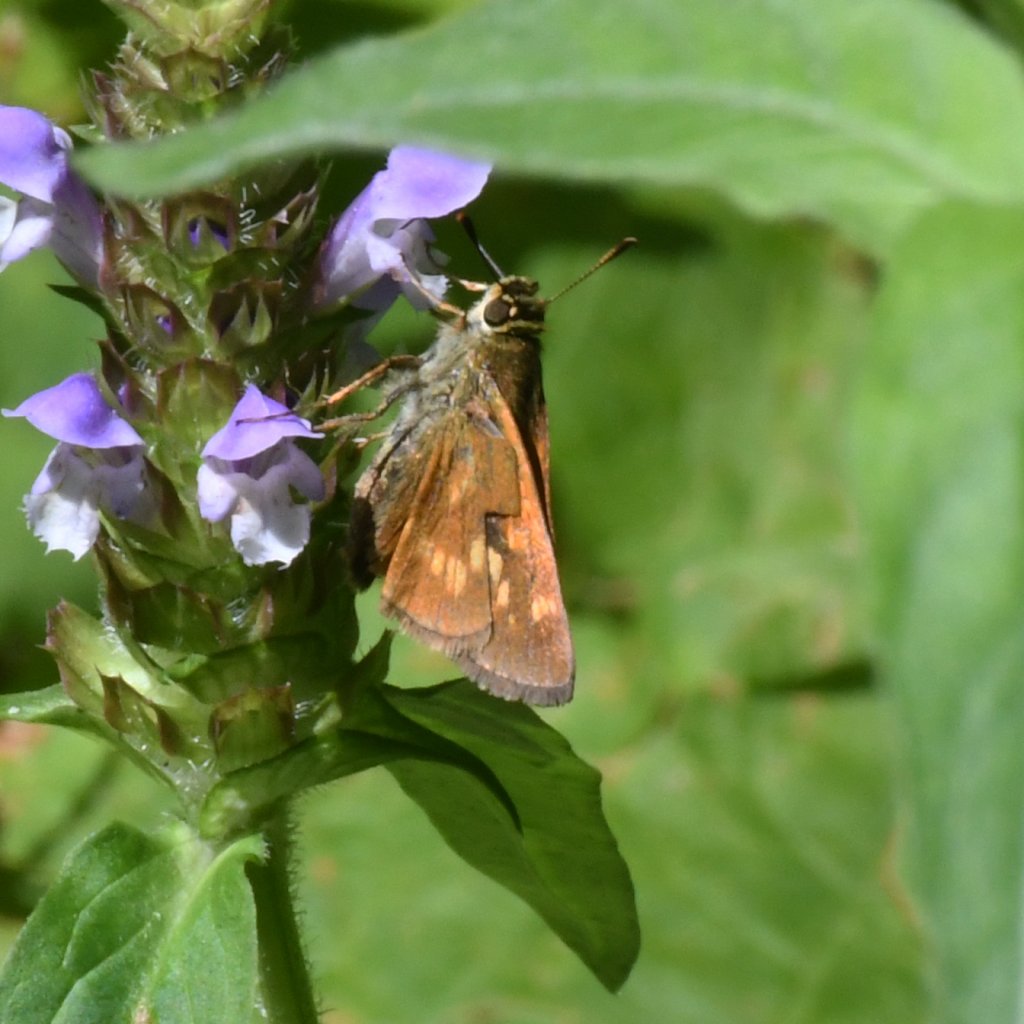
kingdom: Animalia
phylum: Arthropoda
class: Insecta
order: Lepidoptera
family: Hesperiidae
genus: Polites
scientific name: Polites
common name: Long Dash Skipper
